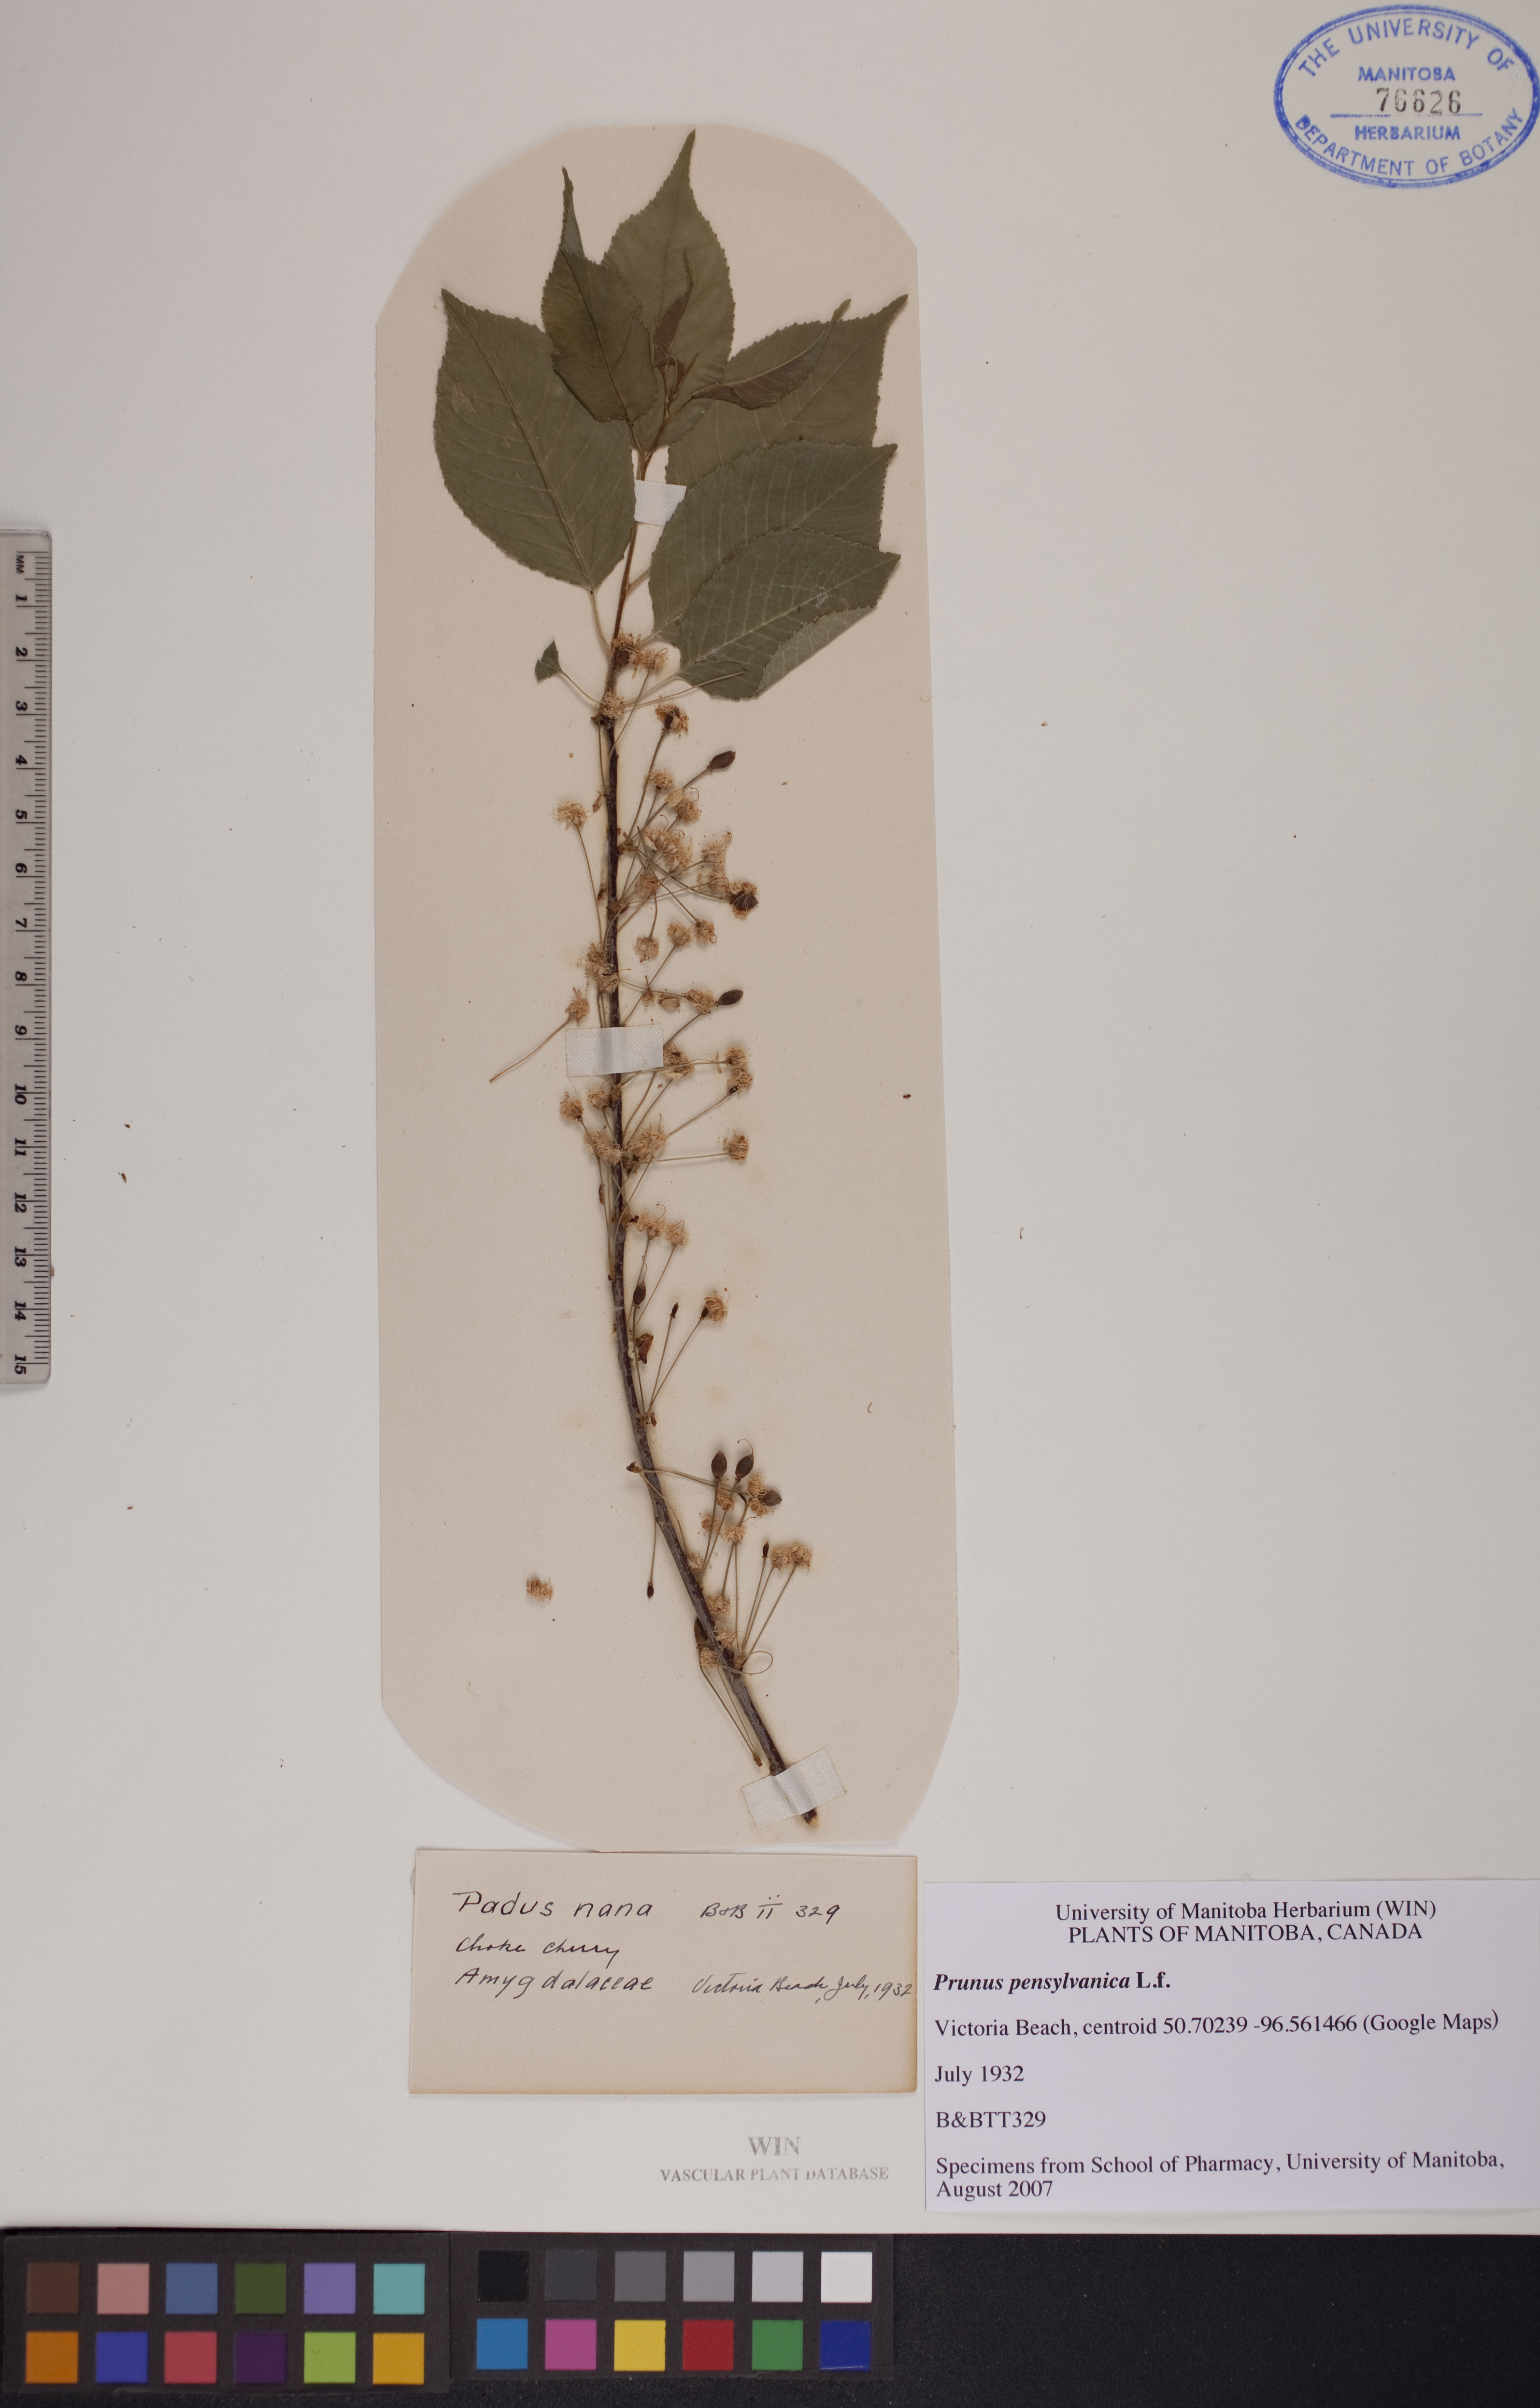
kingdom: Plantae
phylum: Tracheophyta
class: Magnoliopsida
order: Rosales
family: Rosaceae
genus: Prunus
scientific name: Prunus pensylvanica
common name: Pin cherry
